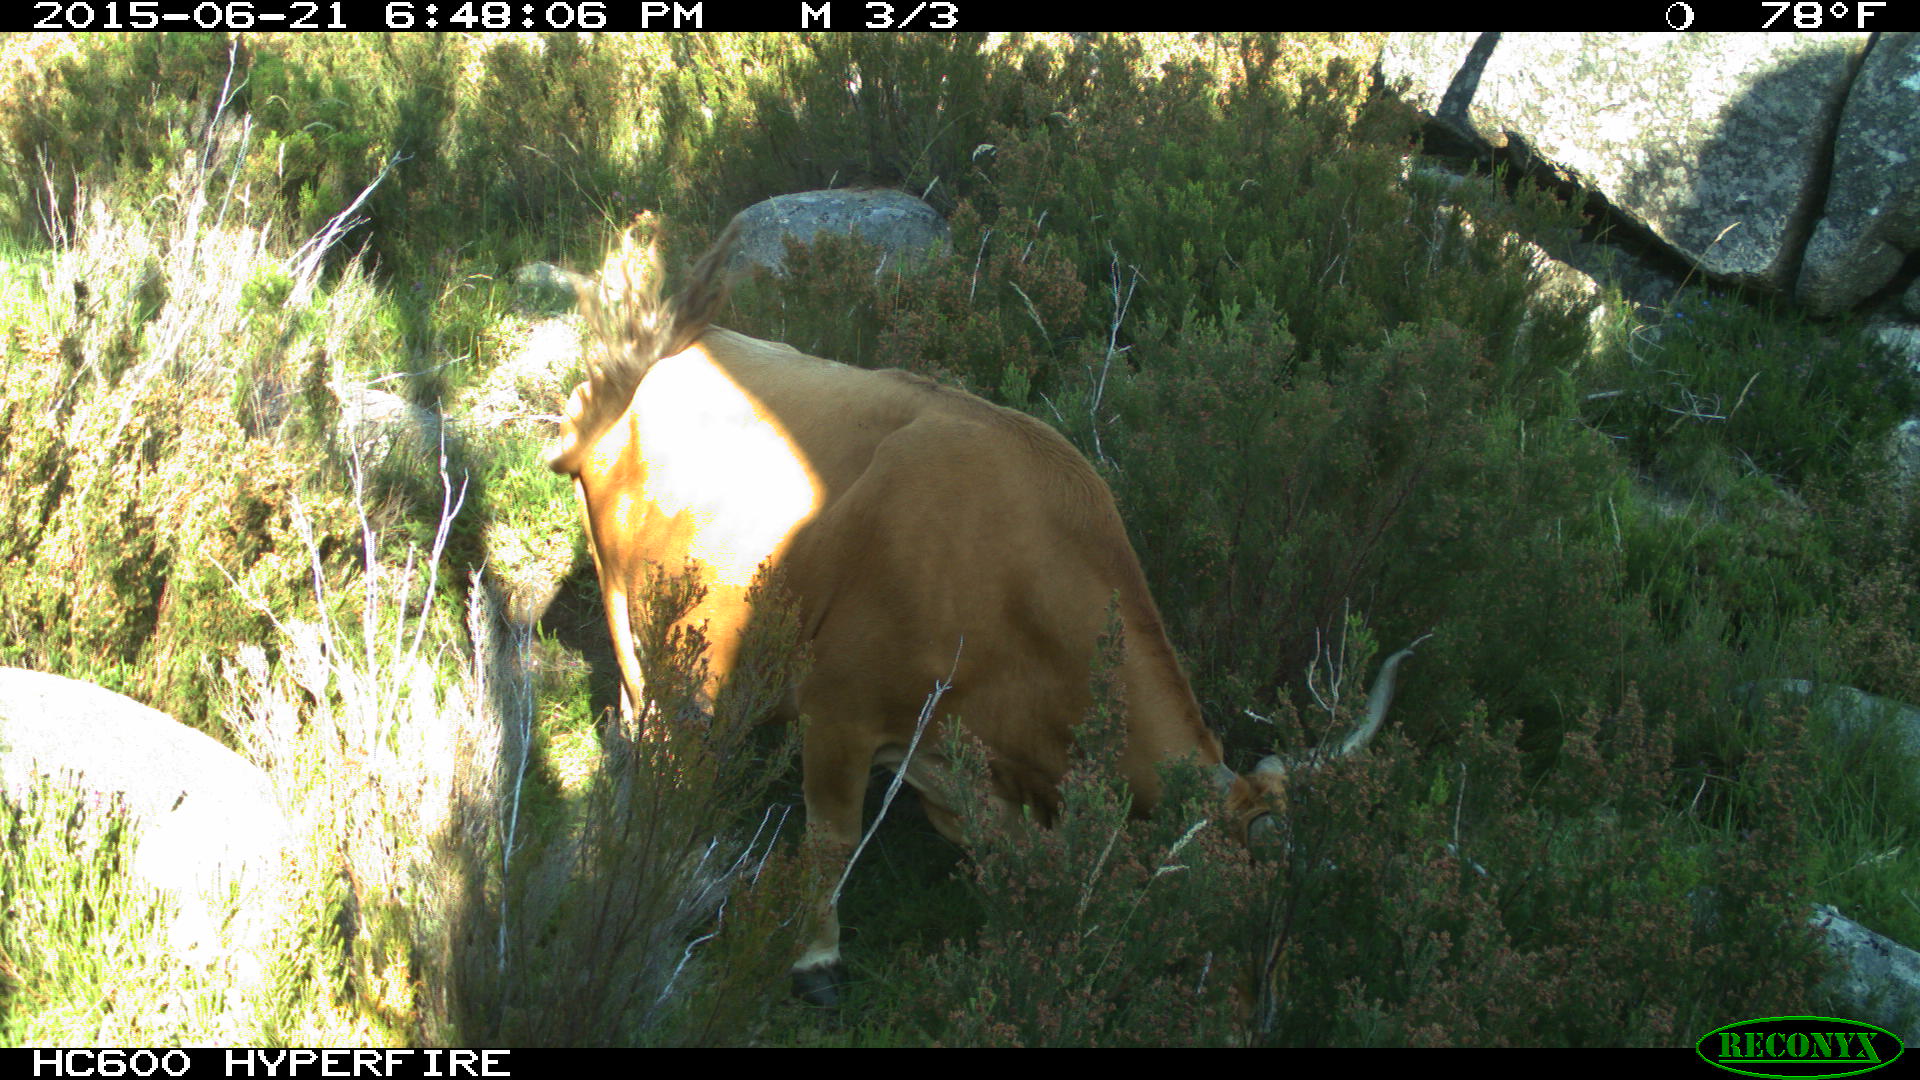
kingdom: Animalia
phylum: Chordata
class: Mammalia
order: Artiodactyla
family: Bovidae
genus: Bos
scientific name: Bos taurus
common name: Domesticated cattle
